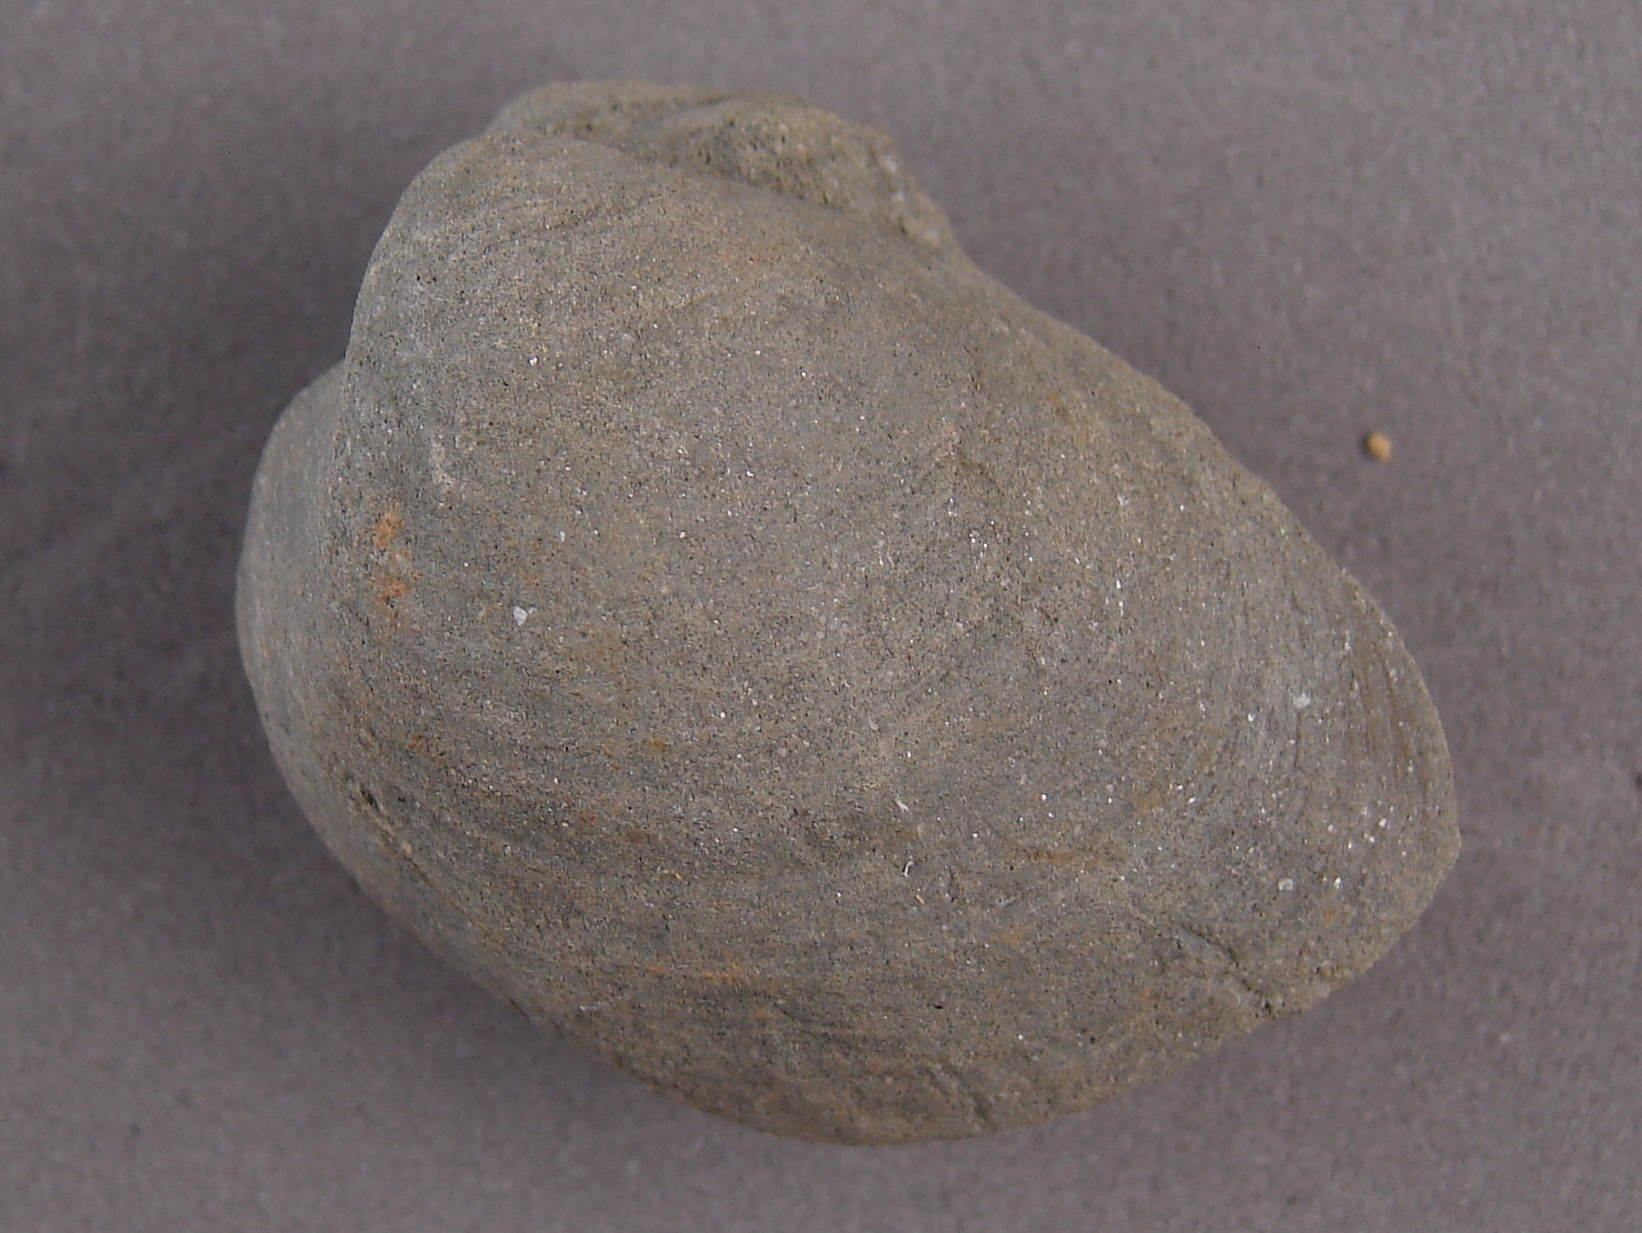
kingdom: Animalia
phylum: Mollusca
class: Bivalvia
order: Myida
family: Ceratomyidae
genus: Gresslya
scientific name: Gresslya
